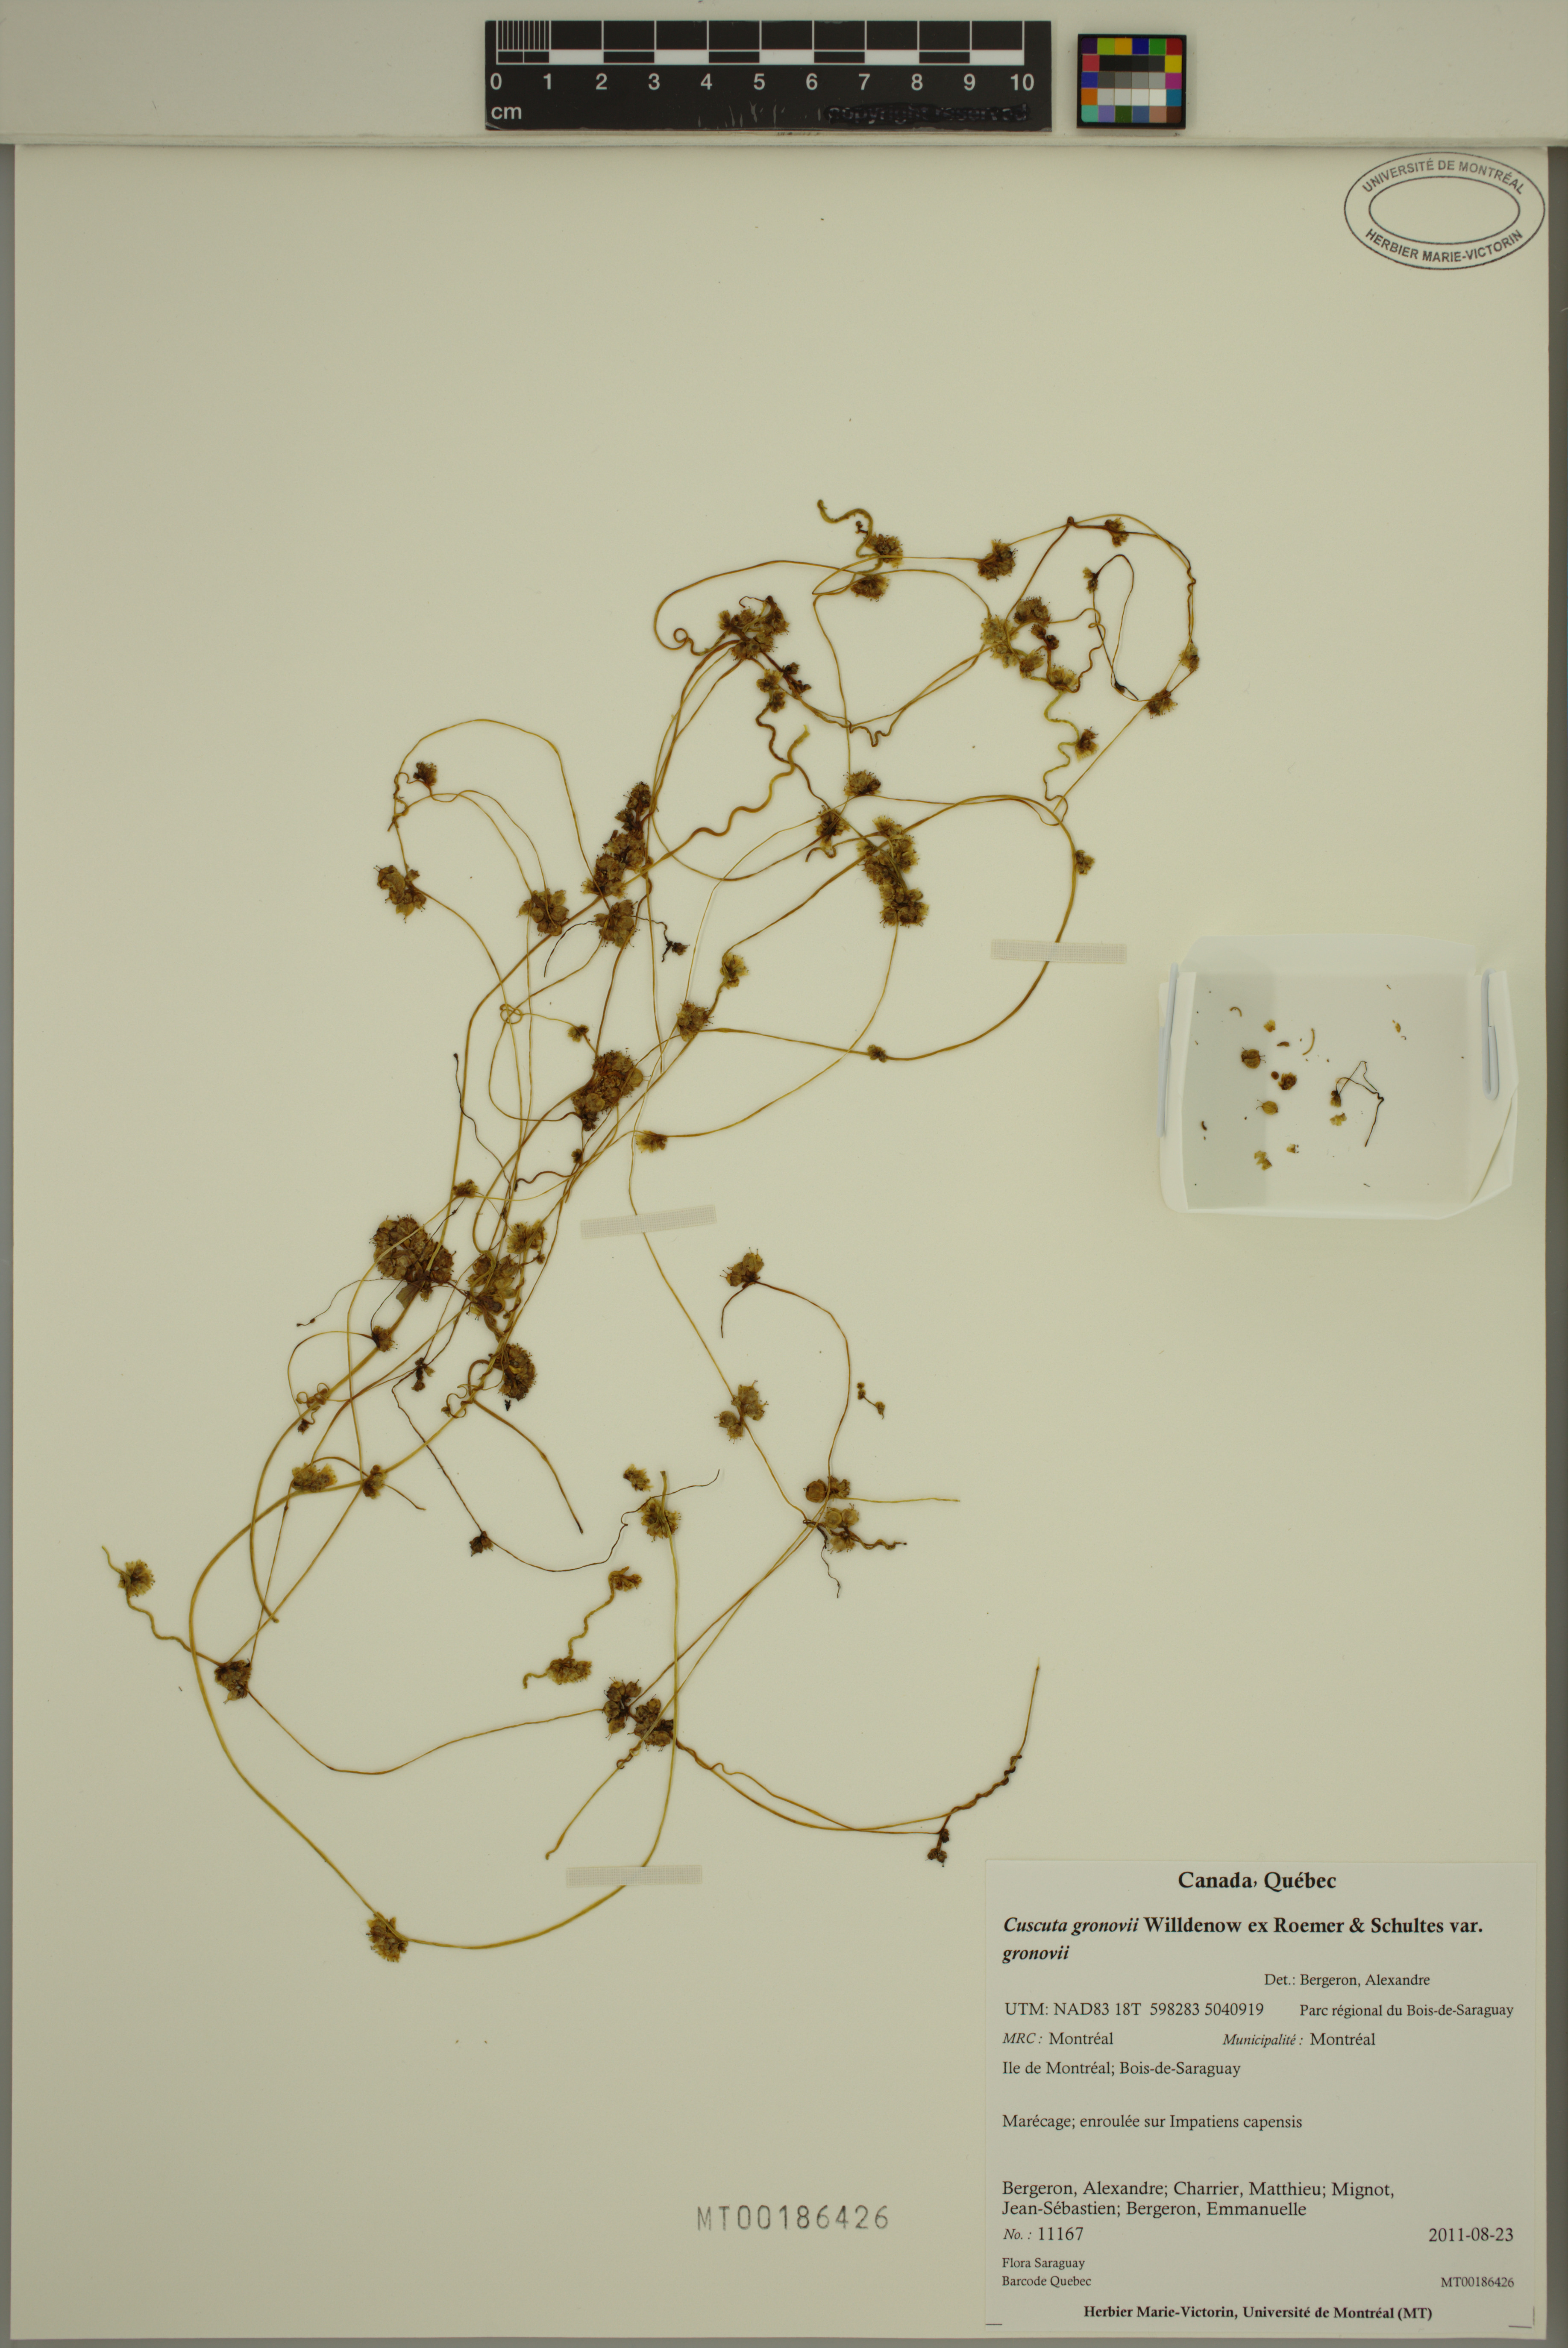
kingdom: Plantae
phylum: Tracheophyta
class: Magnoliopsida
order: Solanales
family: Convolvulaceae
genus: Cuscuta
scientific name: Cuscuta gronovii
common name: Common dodder
